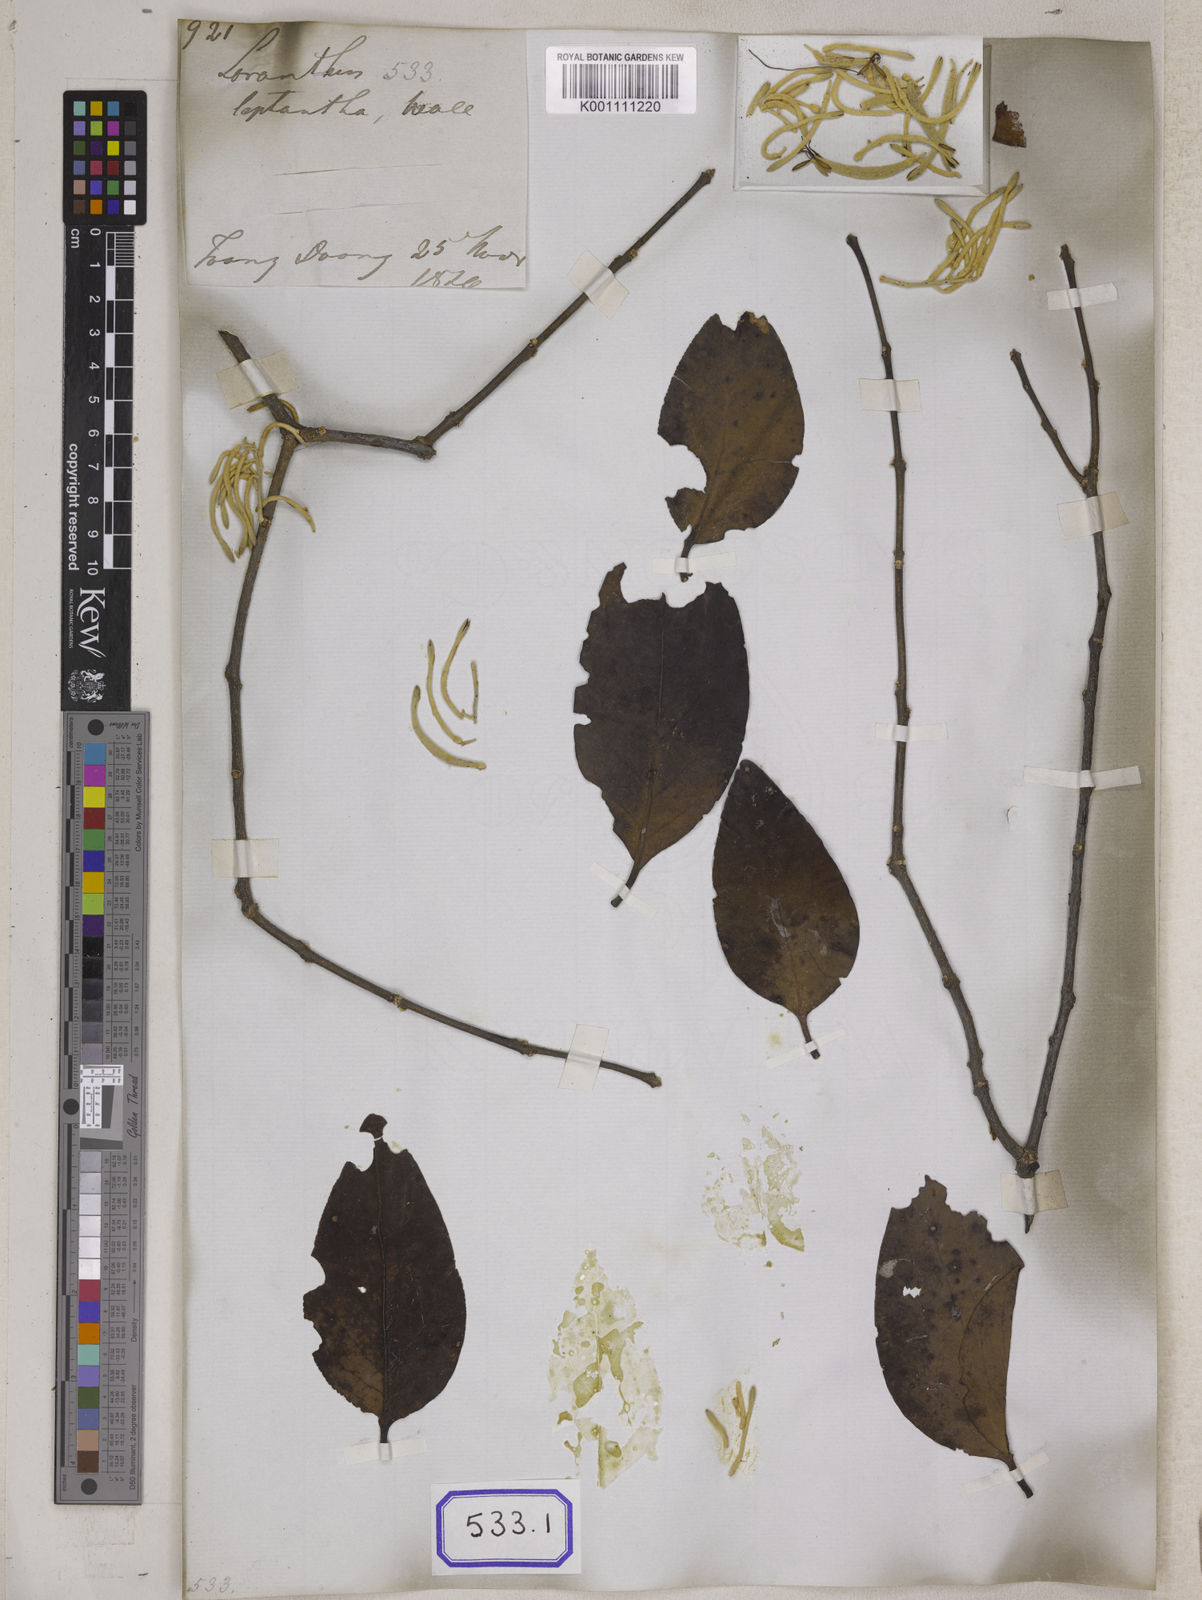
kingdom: Plantae
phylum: Tracheophyta
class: Magnoliopsida
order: Santalales
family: Loranthaceae
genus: Loranthus
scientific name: Loranthus
